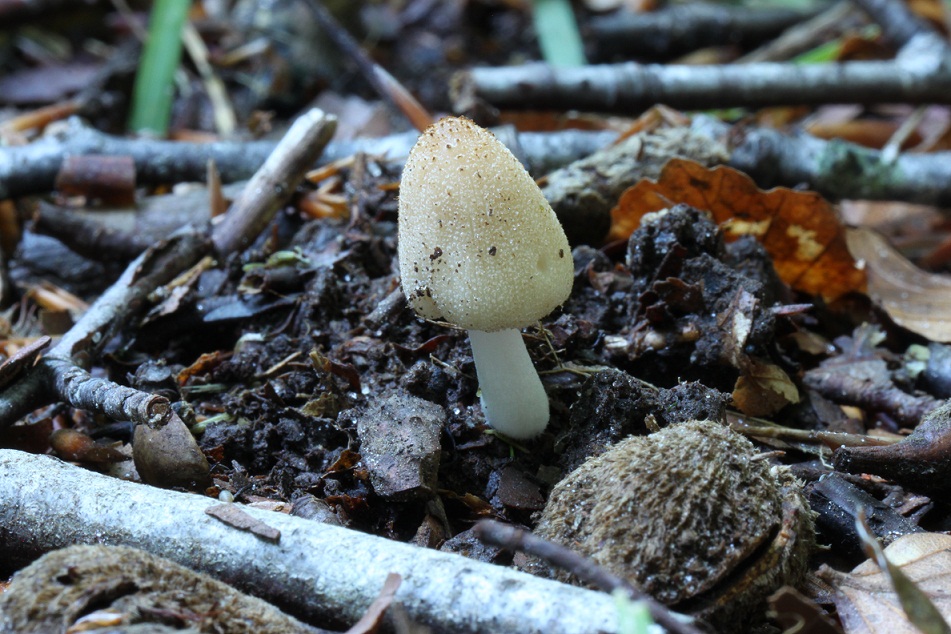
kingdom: Fungi
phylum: Basidiomycota
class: Agaricomycetes
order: Agaricales
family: Psathyrellaceae
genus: Coprinellus
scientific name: Coprinellus domesticus
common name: hus-blækhat
